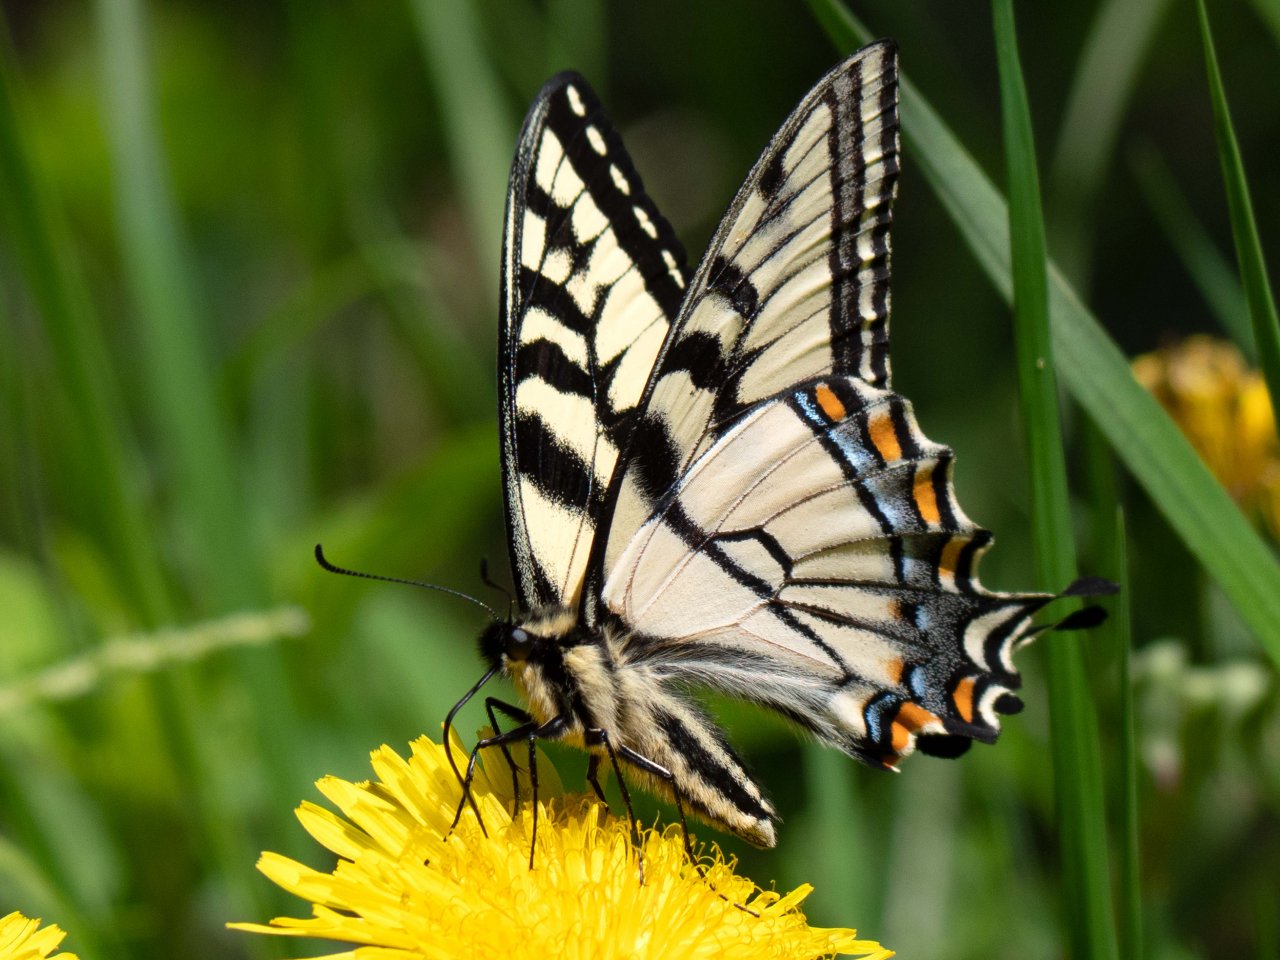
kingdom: Animalia
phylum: Arthropoda
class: Insecta
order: Lepidoptera
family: Papilionidae
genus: Pterourus
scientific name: Pterourus canadensis
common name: Canadian Tiger Swallowtail
